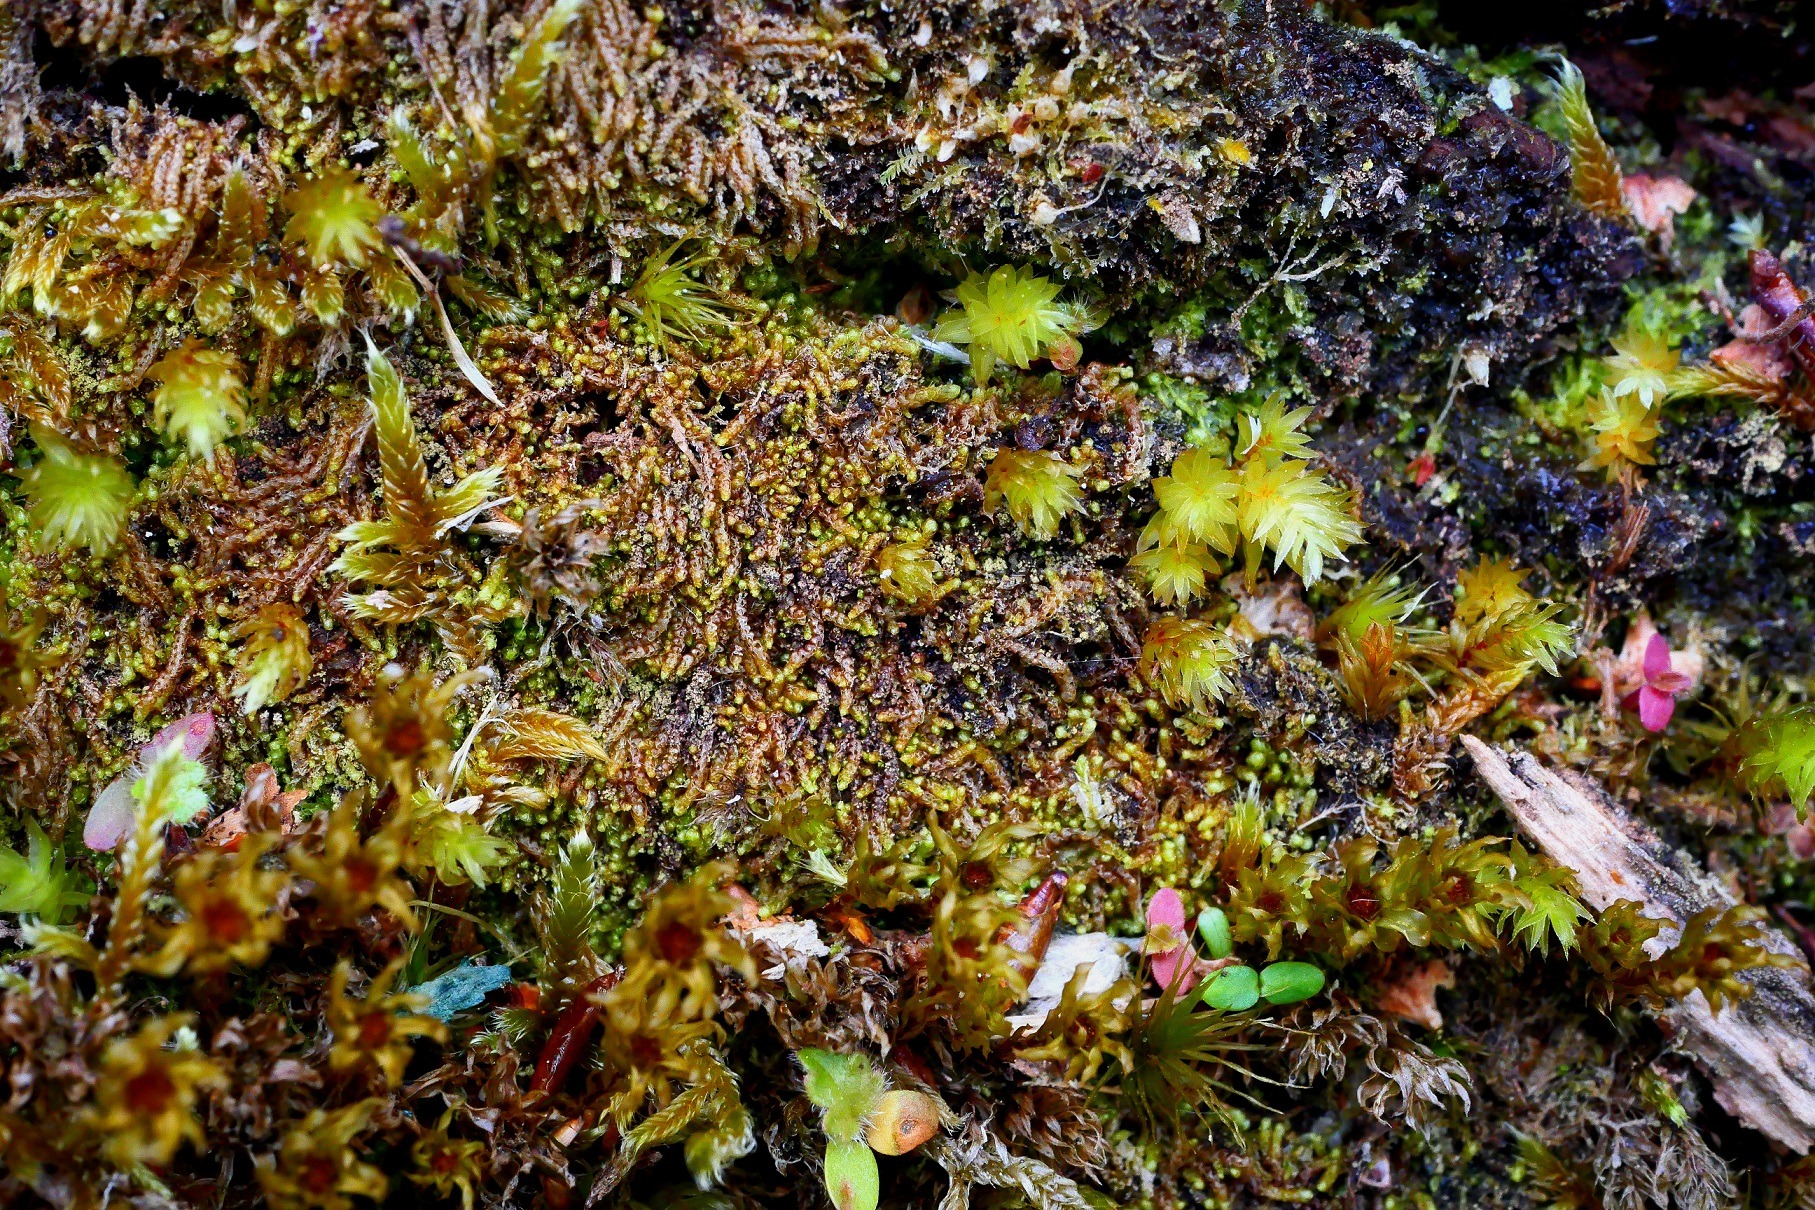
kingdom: Plantae
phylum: Marchantiophyta
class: Jungermanniopsida
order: Jungermanniales
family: Cephaloziaceae
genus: Nowellia
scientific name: Nowellia curvifolia
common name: Krumbladet stødmos
